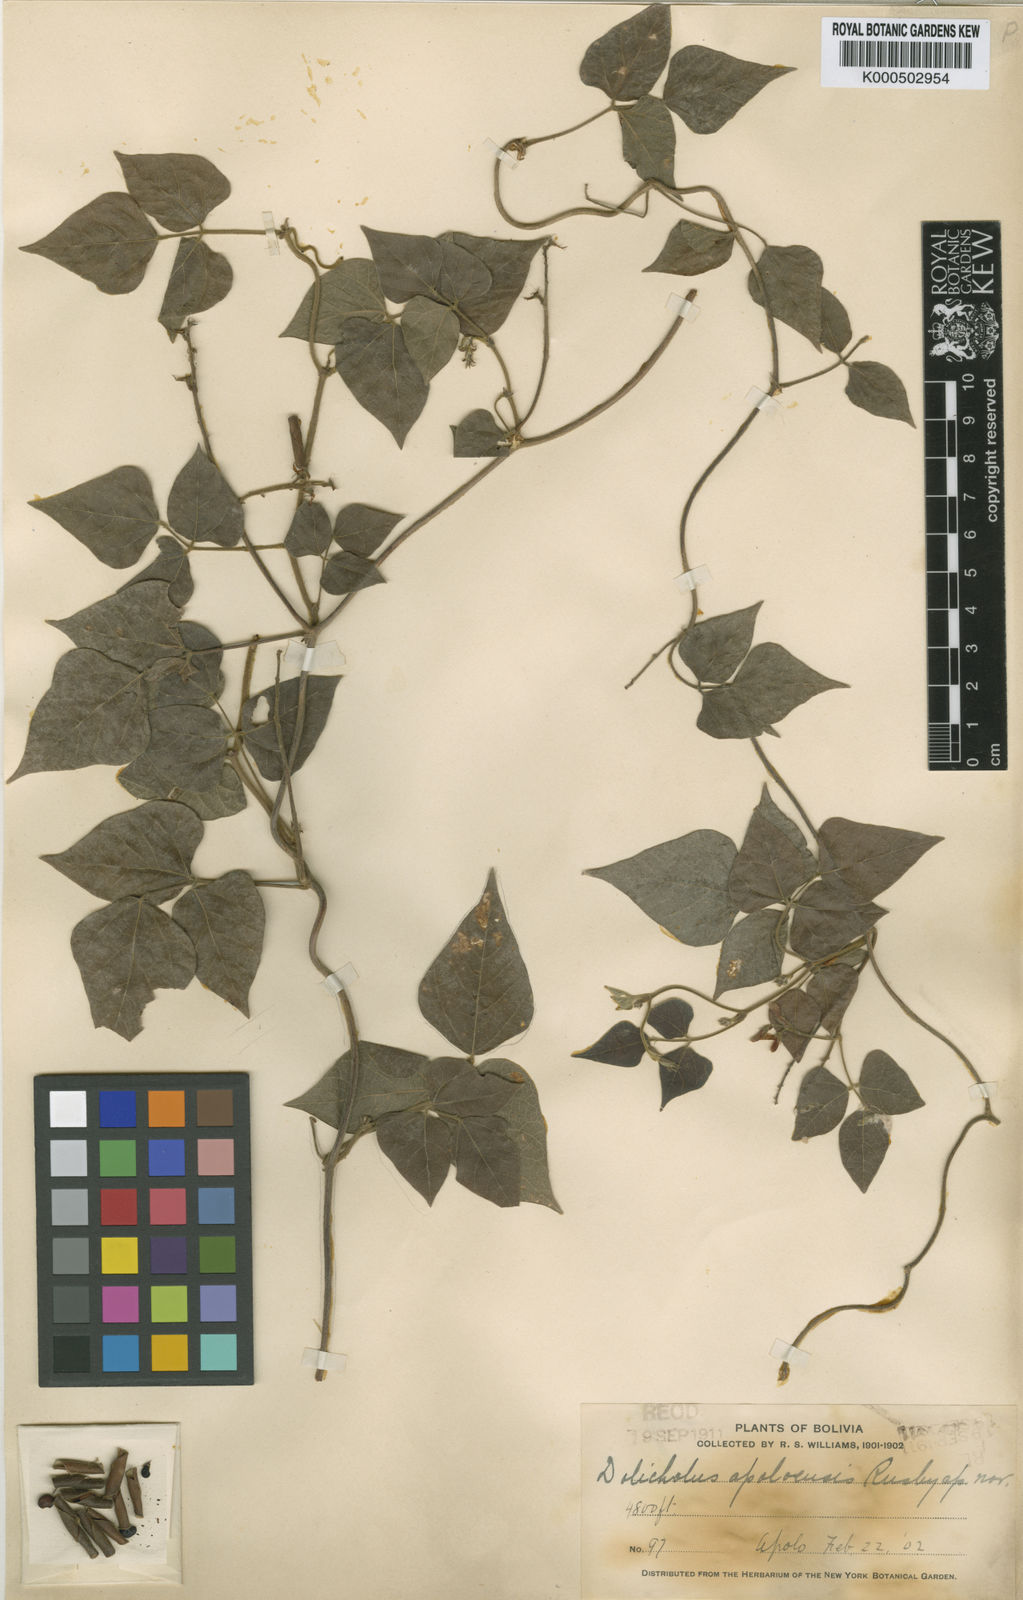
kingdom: Plantae
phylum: Tracheophyta
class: Magnoliopsida
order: Fabales
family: Fabaceae
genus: Rhynchosia
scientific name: Rhynchosia edulis
